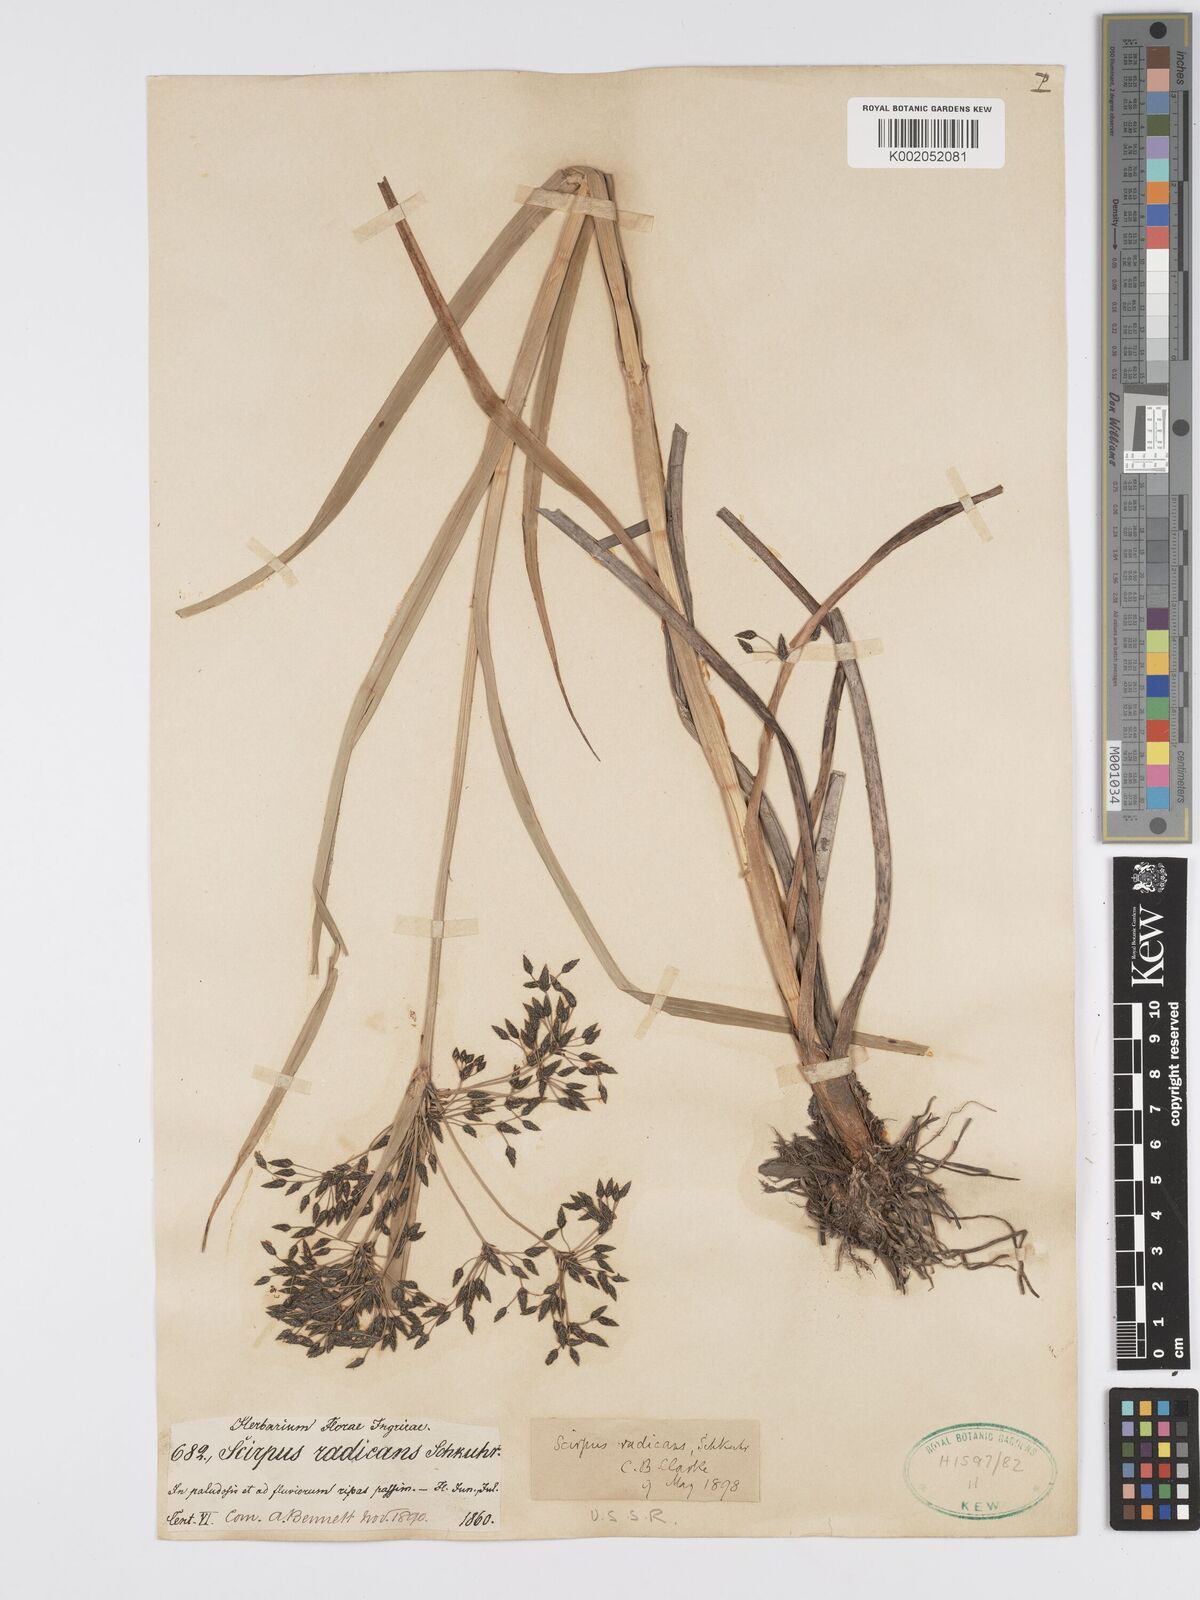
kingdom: Plantae
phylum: Tracheophyta
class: Liliopsida
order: Poales
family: Cyperaceae
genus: Scirpus
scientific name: Scirpus radicans
